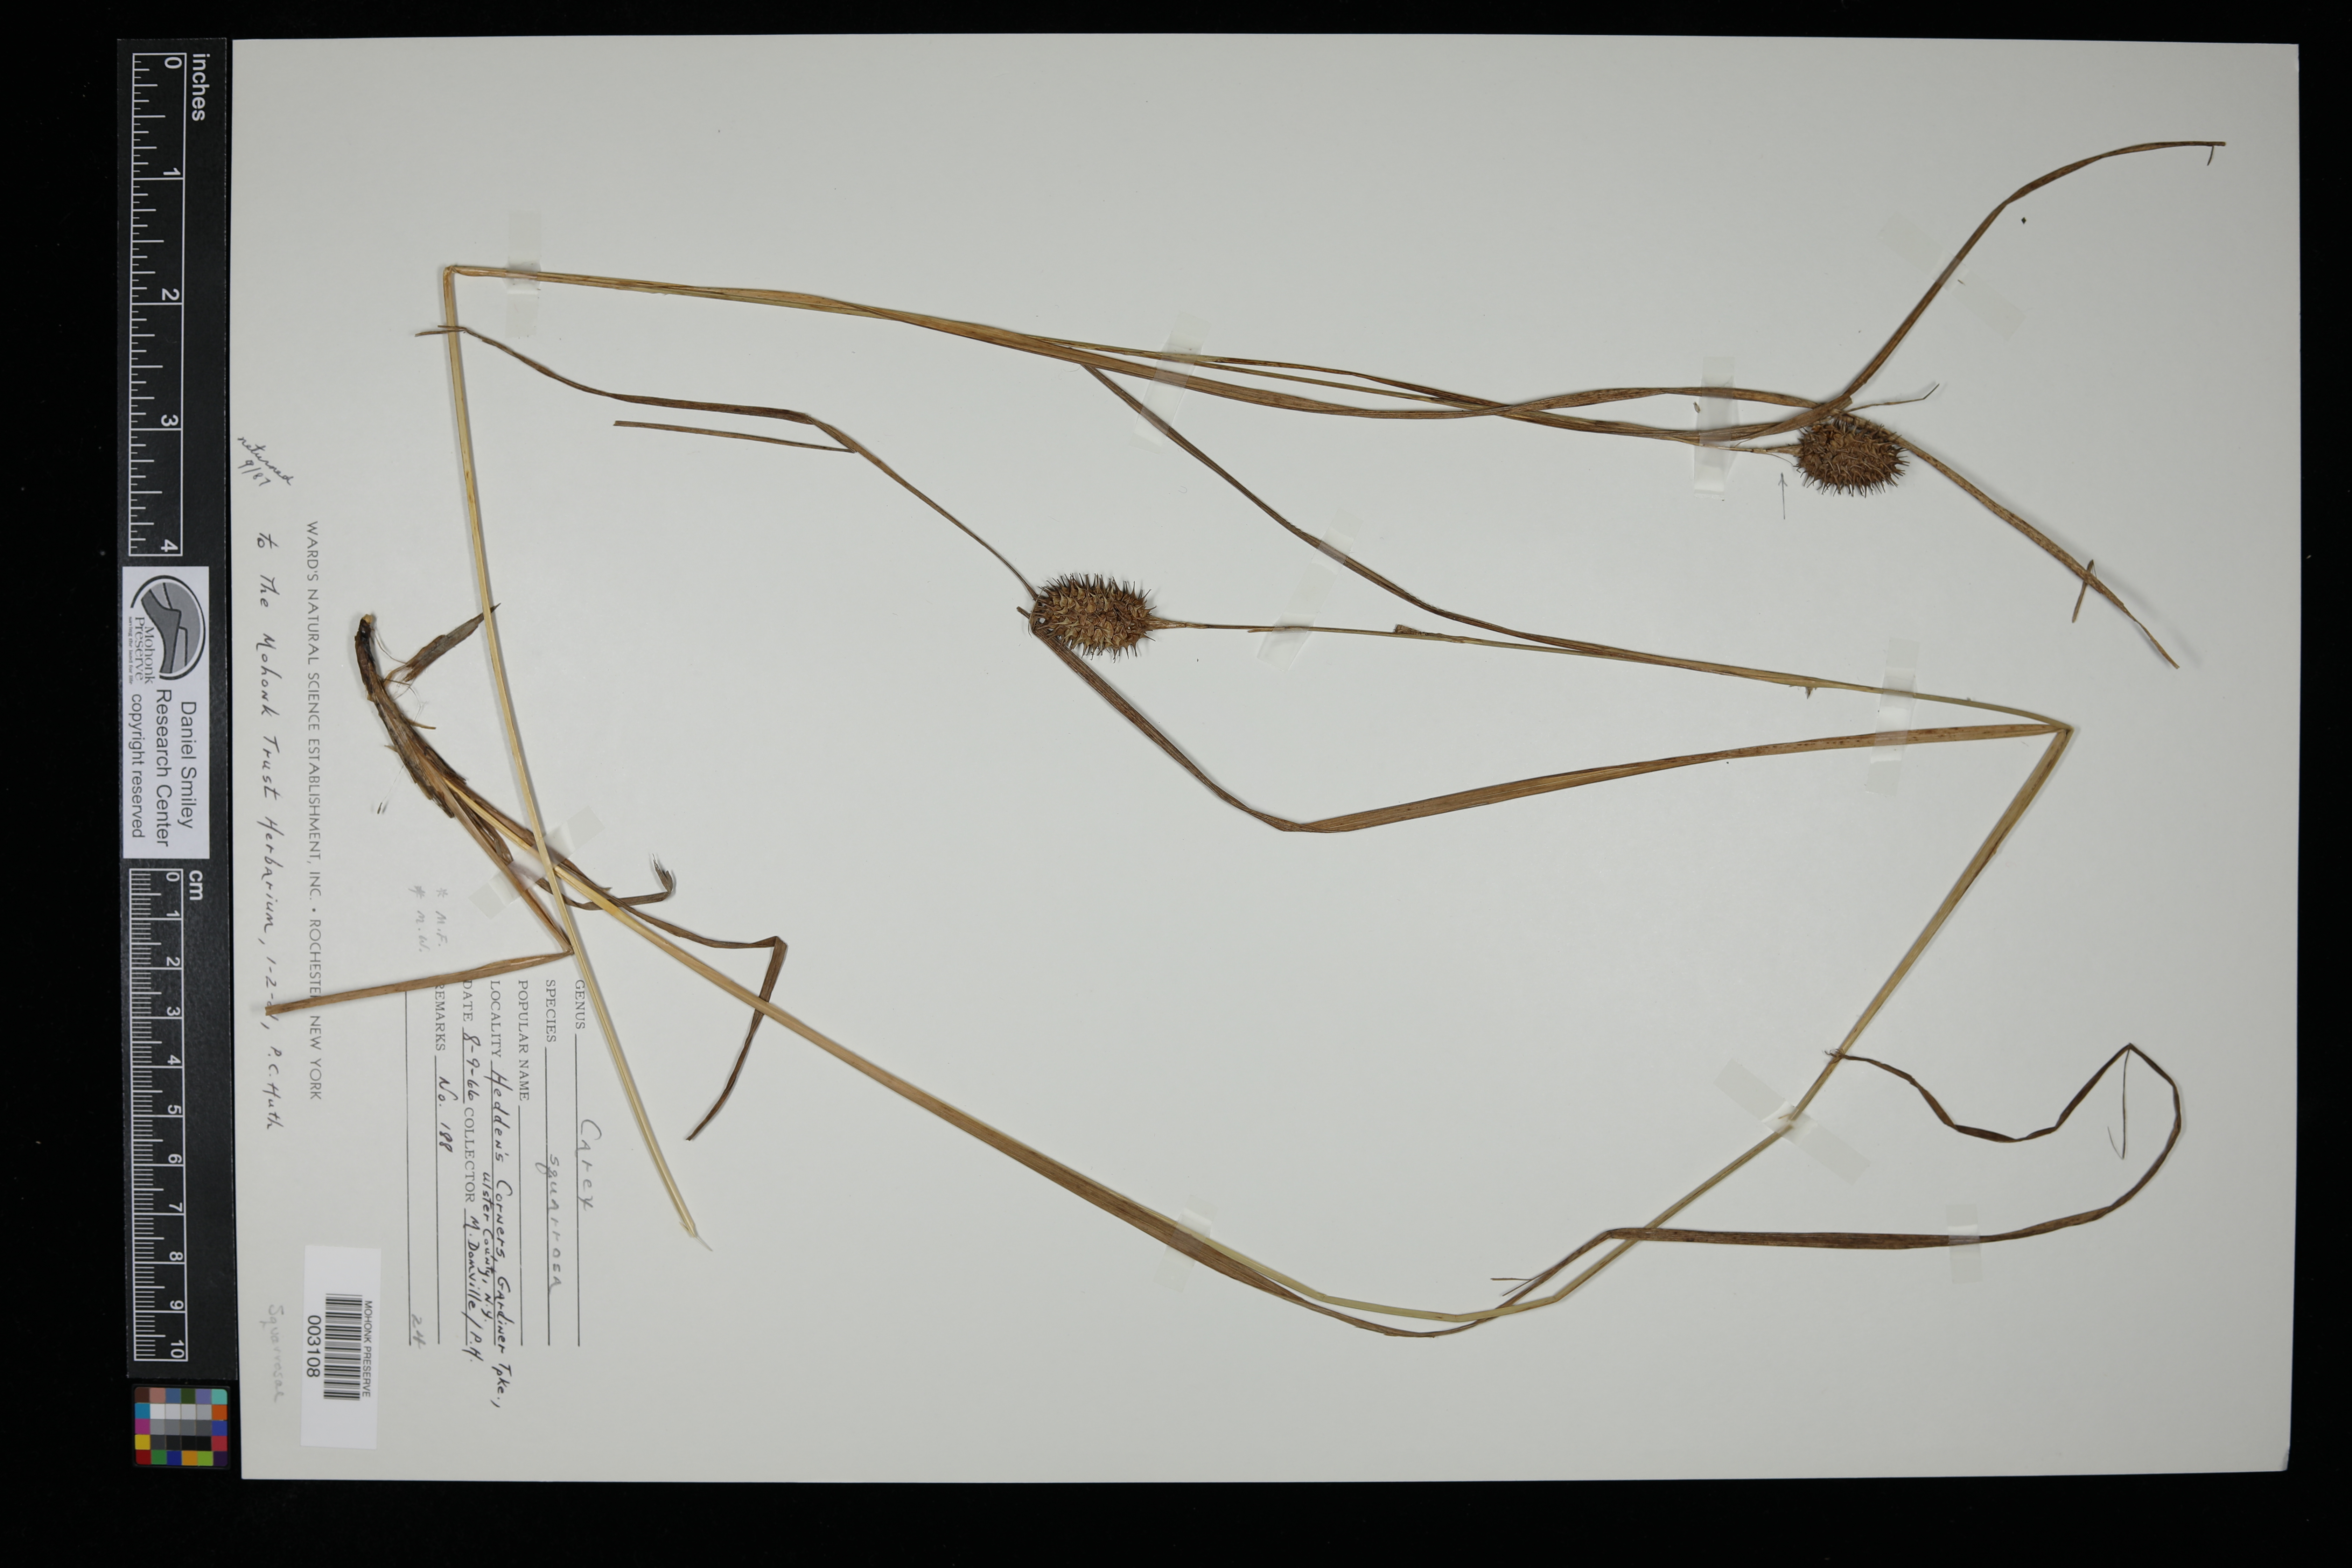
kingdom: Plantae
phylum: Tracheophyta
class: Liliopsida
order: Poales
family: Cyperaceae
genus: Carex
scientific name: Carex squarrosa
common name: Narrow-leaved cattail sedge
